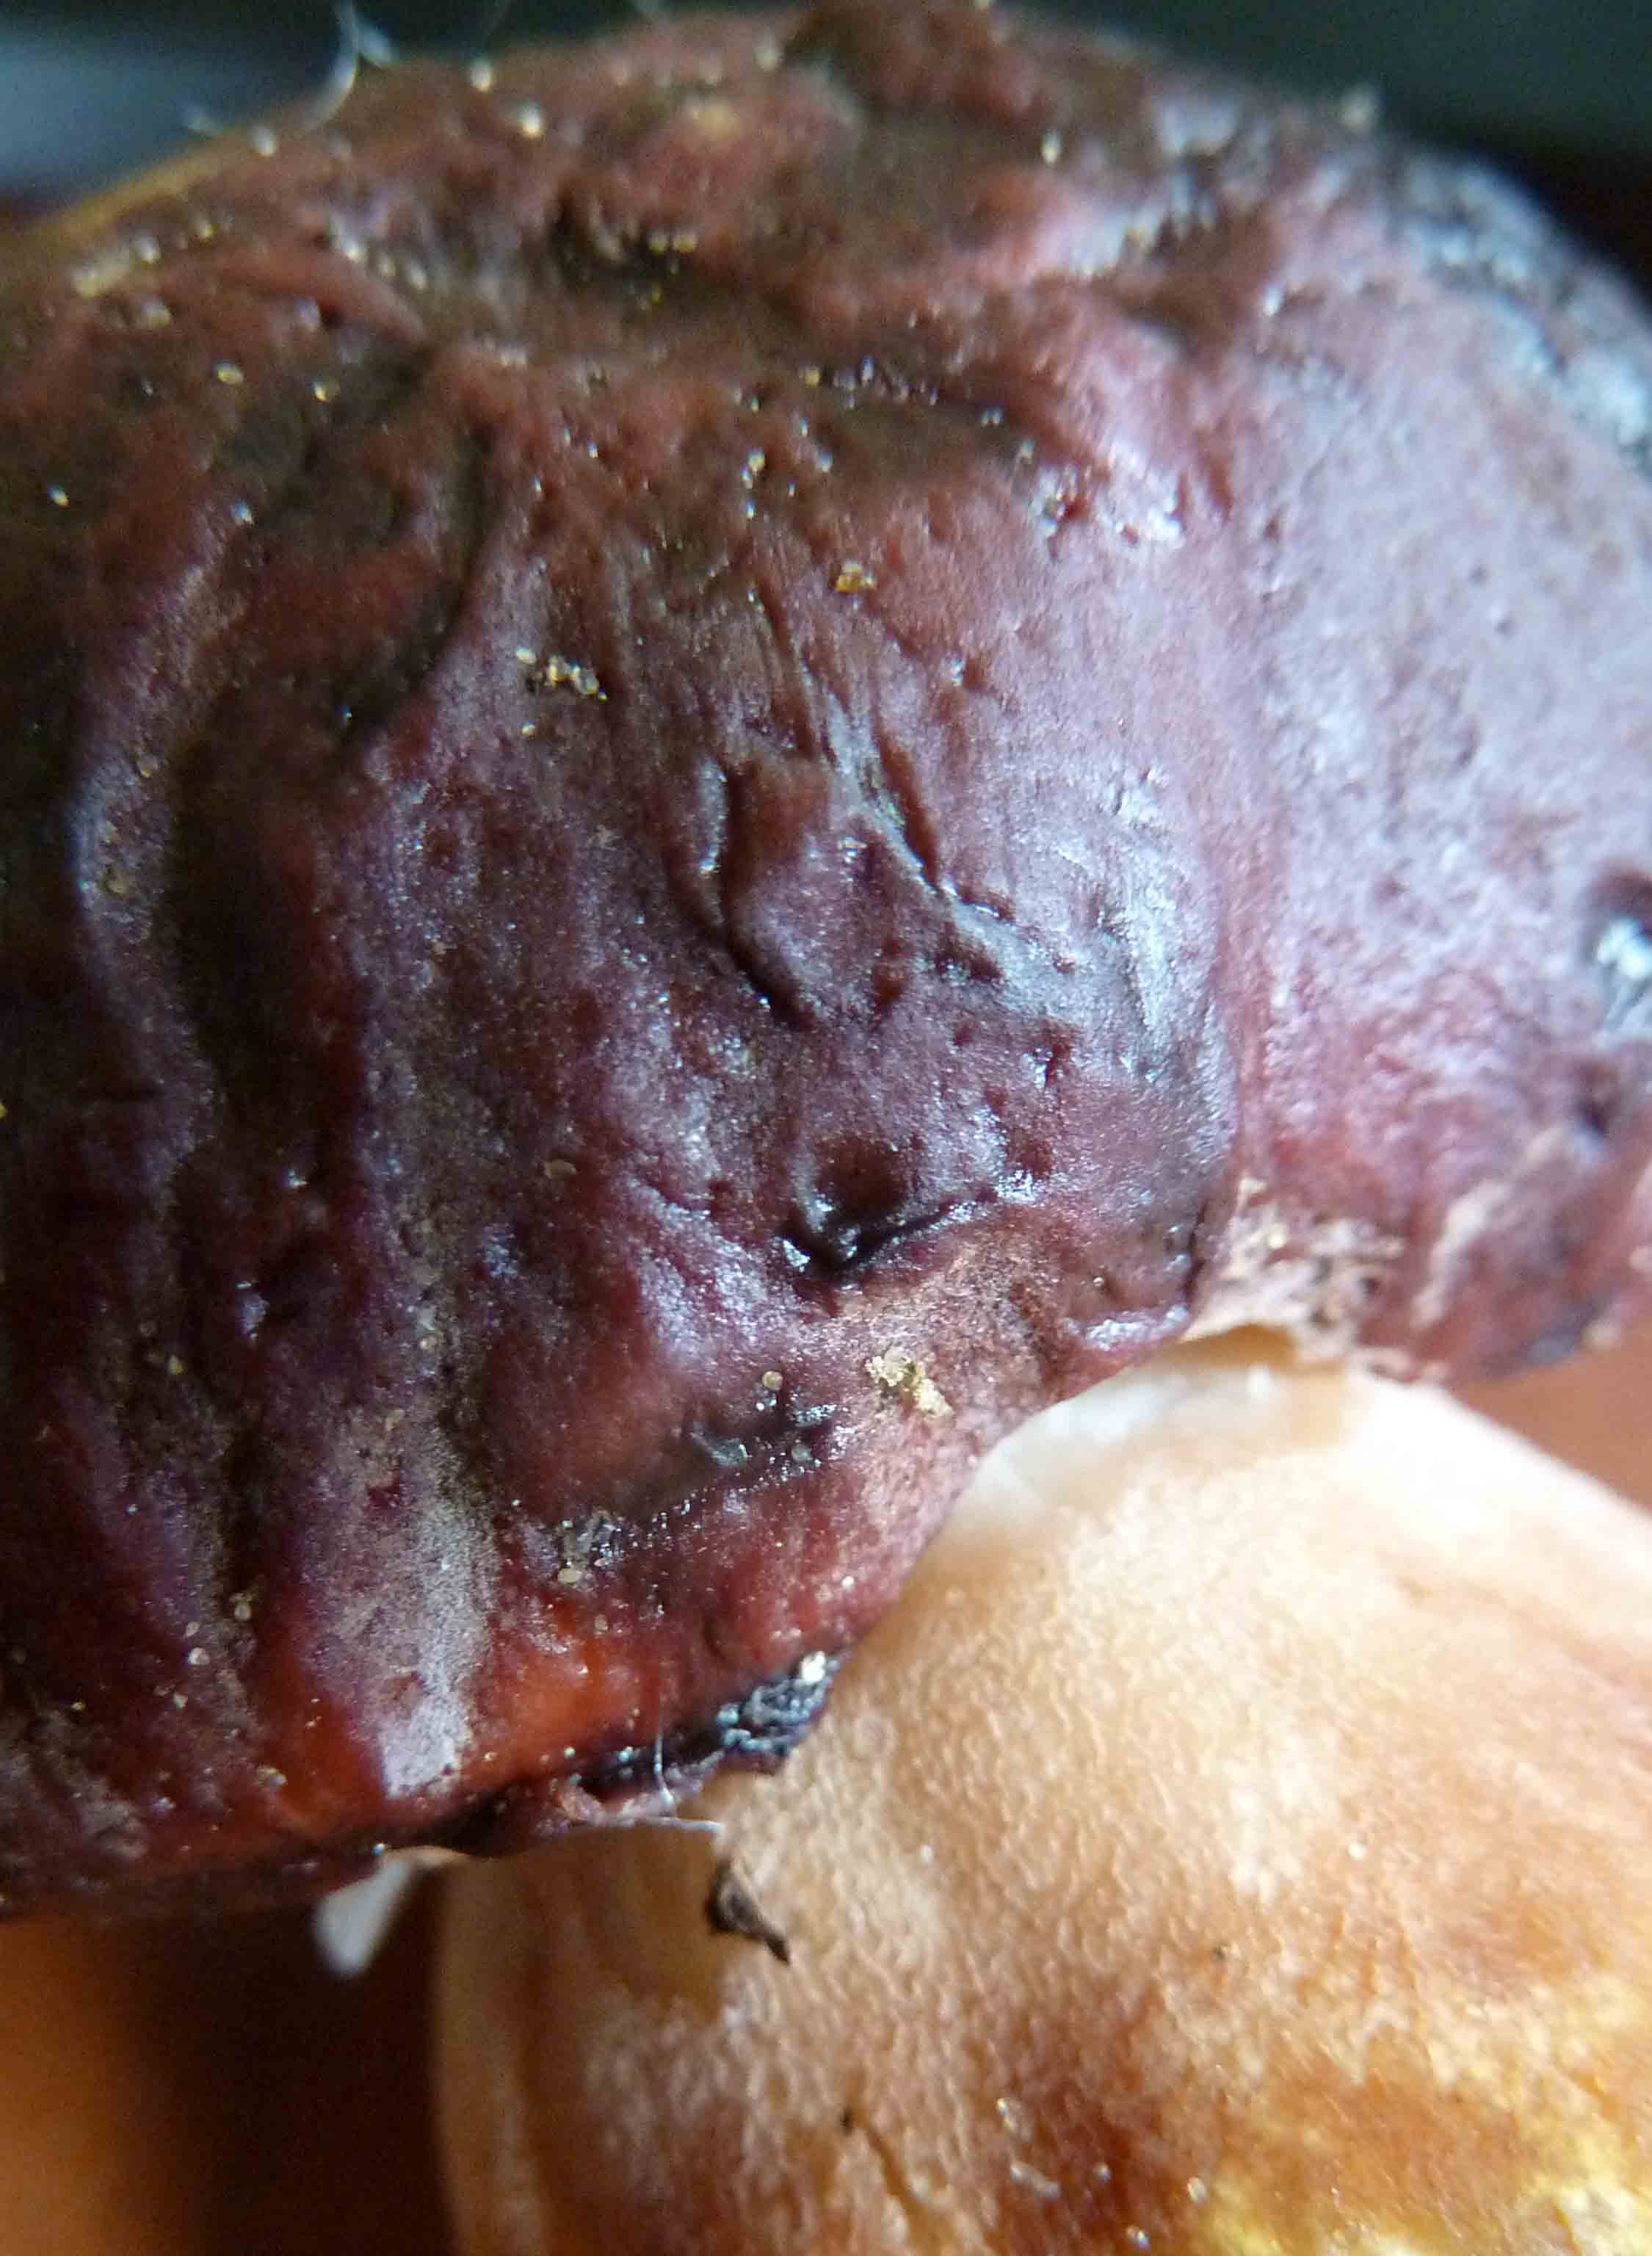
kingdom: Fungi
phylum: Basidiomycota
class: Agaricomycetes
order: Boletales
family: Boletaceae
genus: Boletus
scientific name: Boletus pinophilus
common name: rødbrun rørhat
